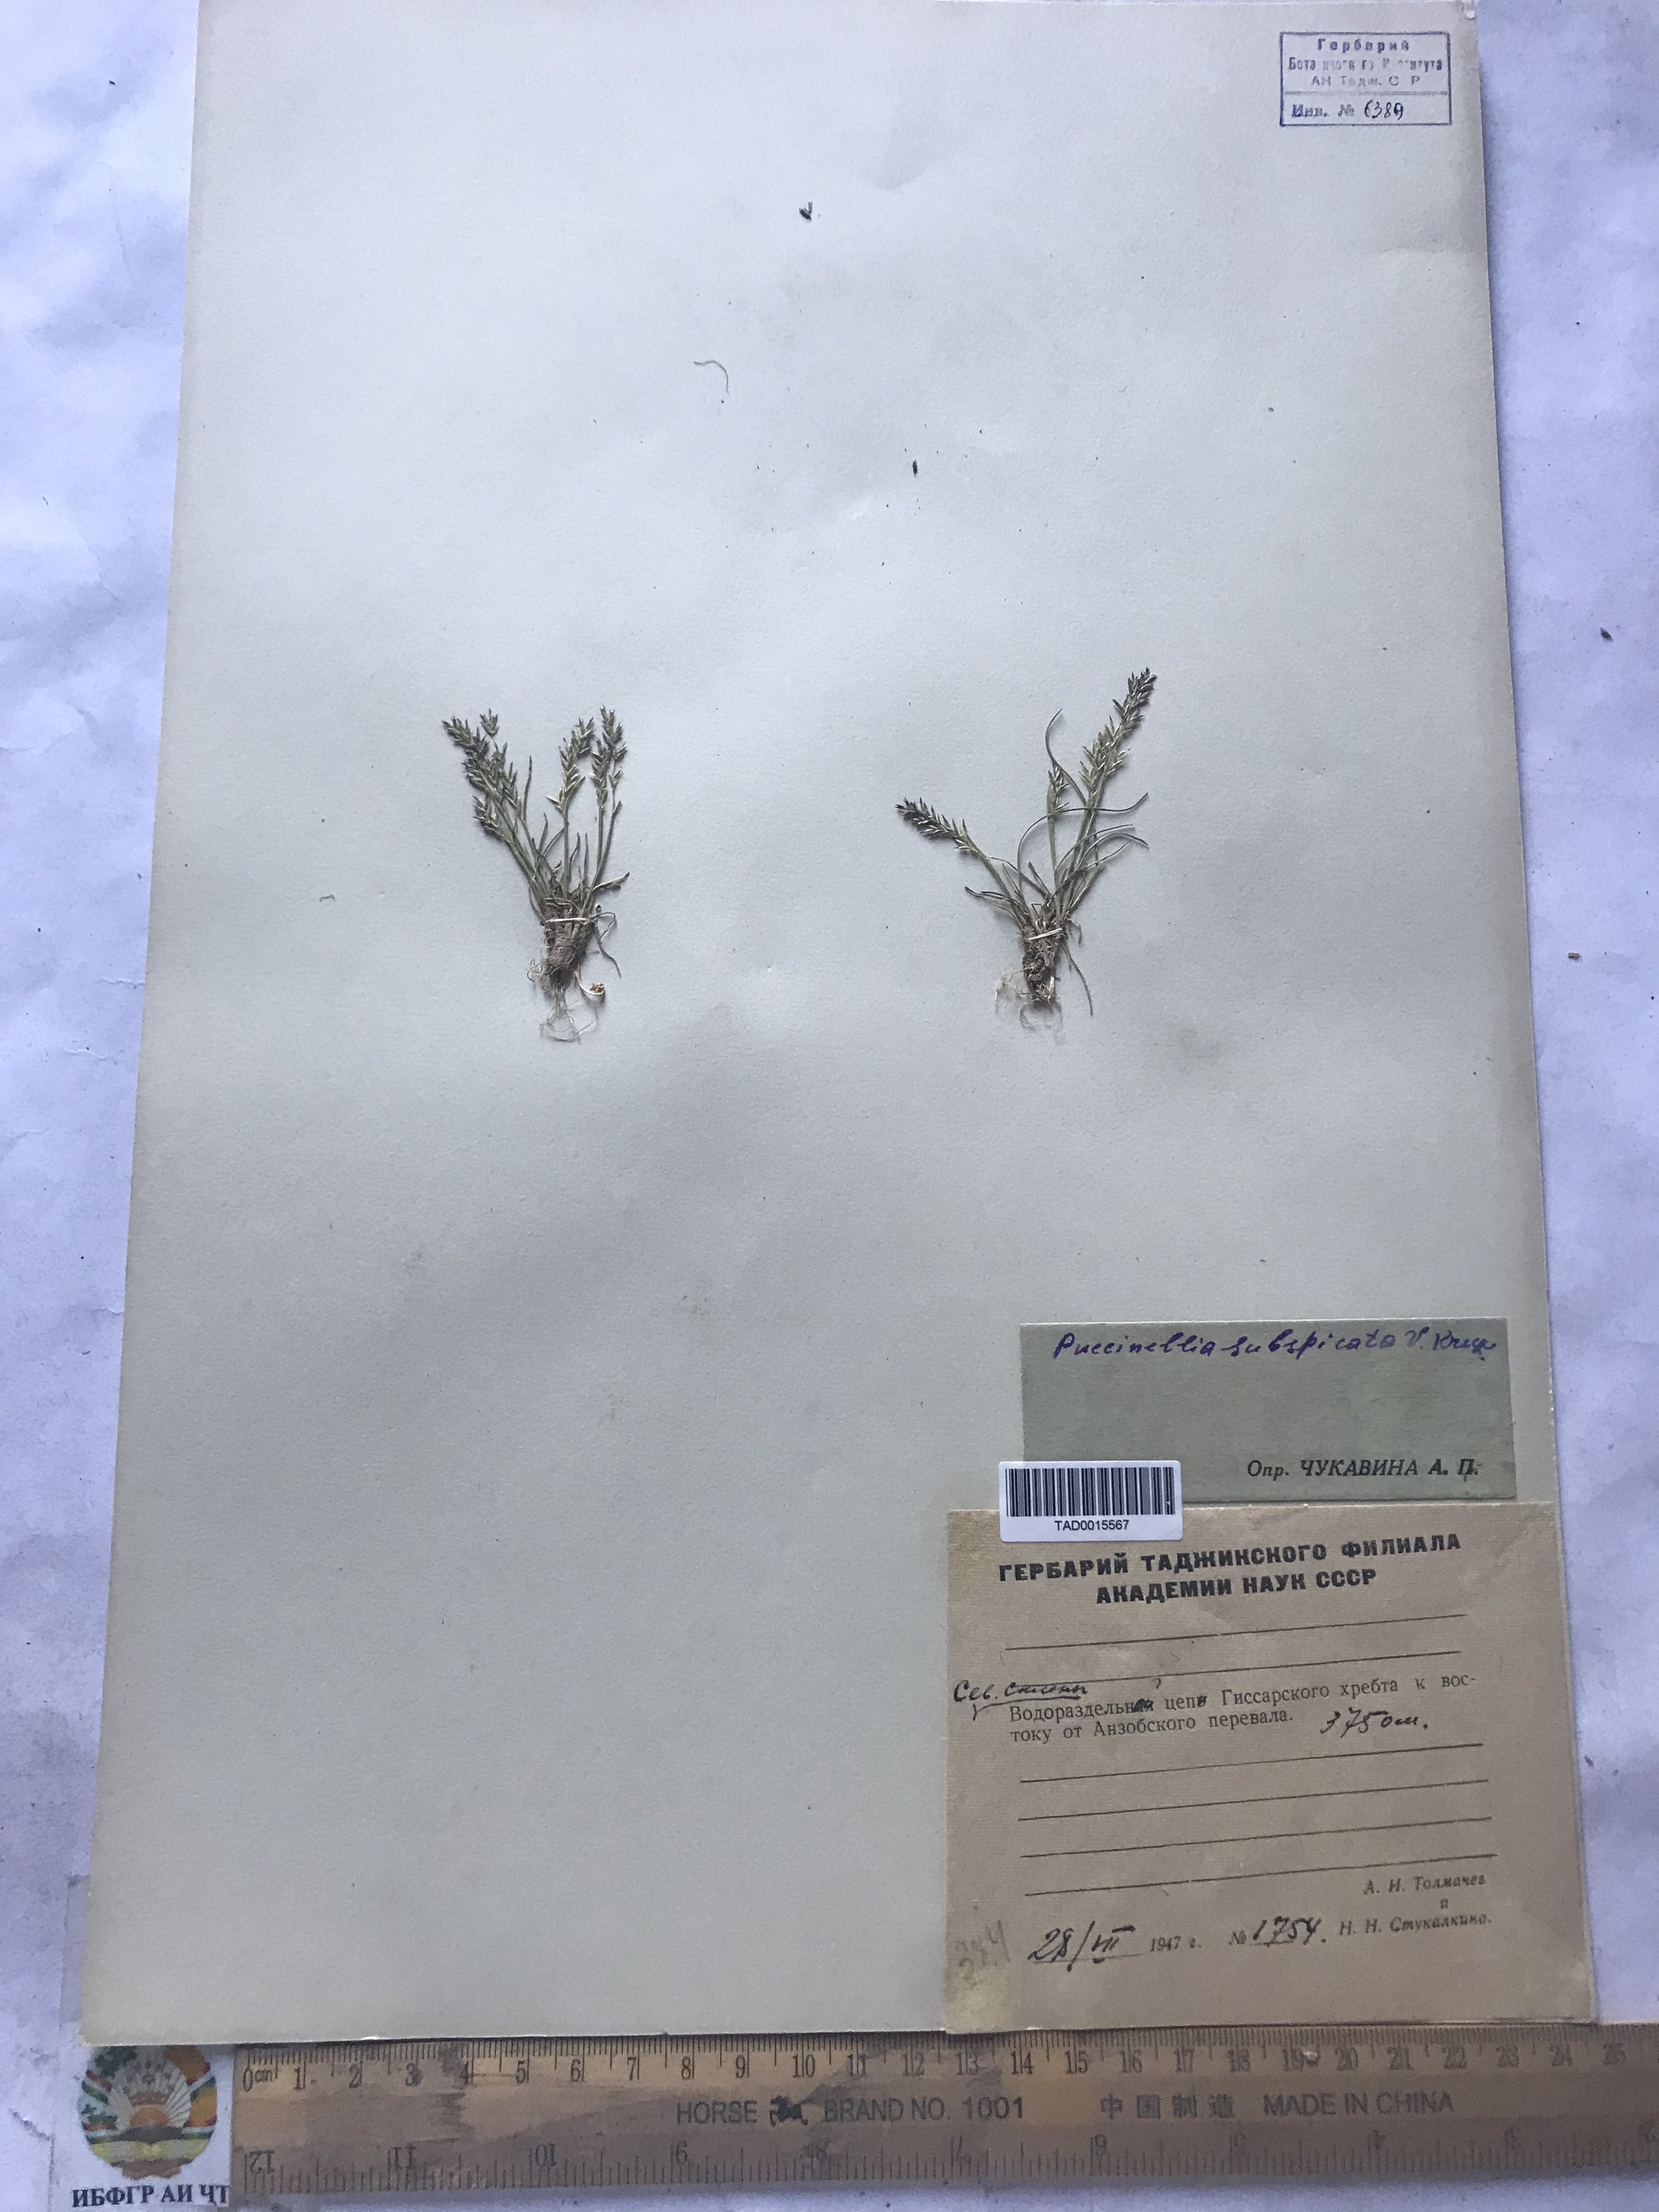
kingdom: Plantae
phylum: Tracheophyta
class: Liliopsida
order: Poales
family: Poaceae
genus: Puccinellia
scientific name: Puccinellia subspicata
